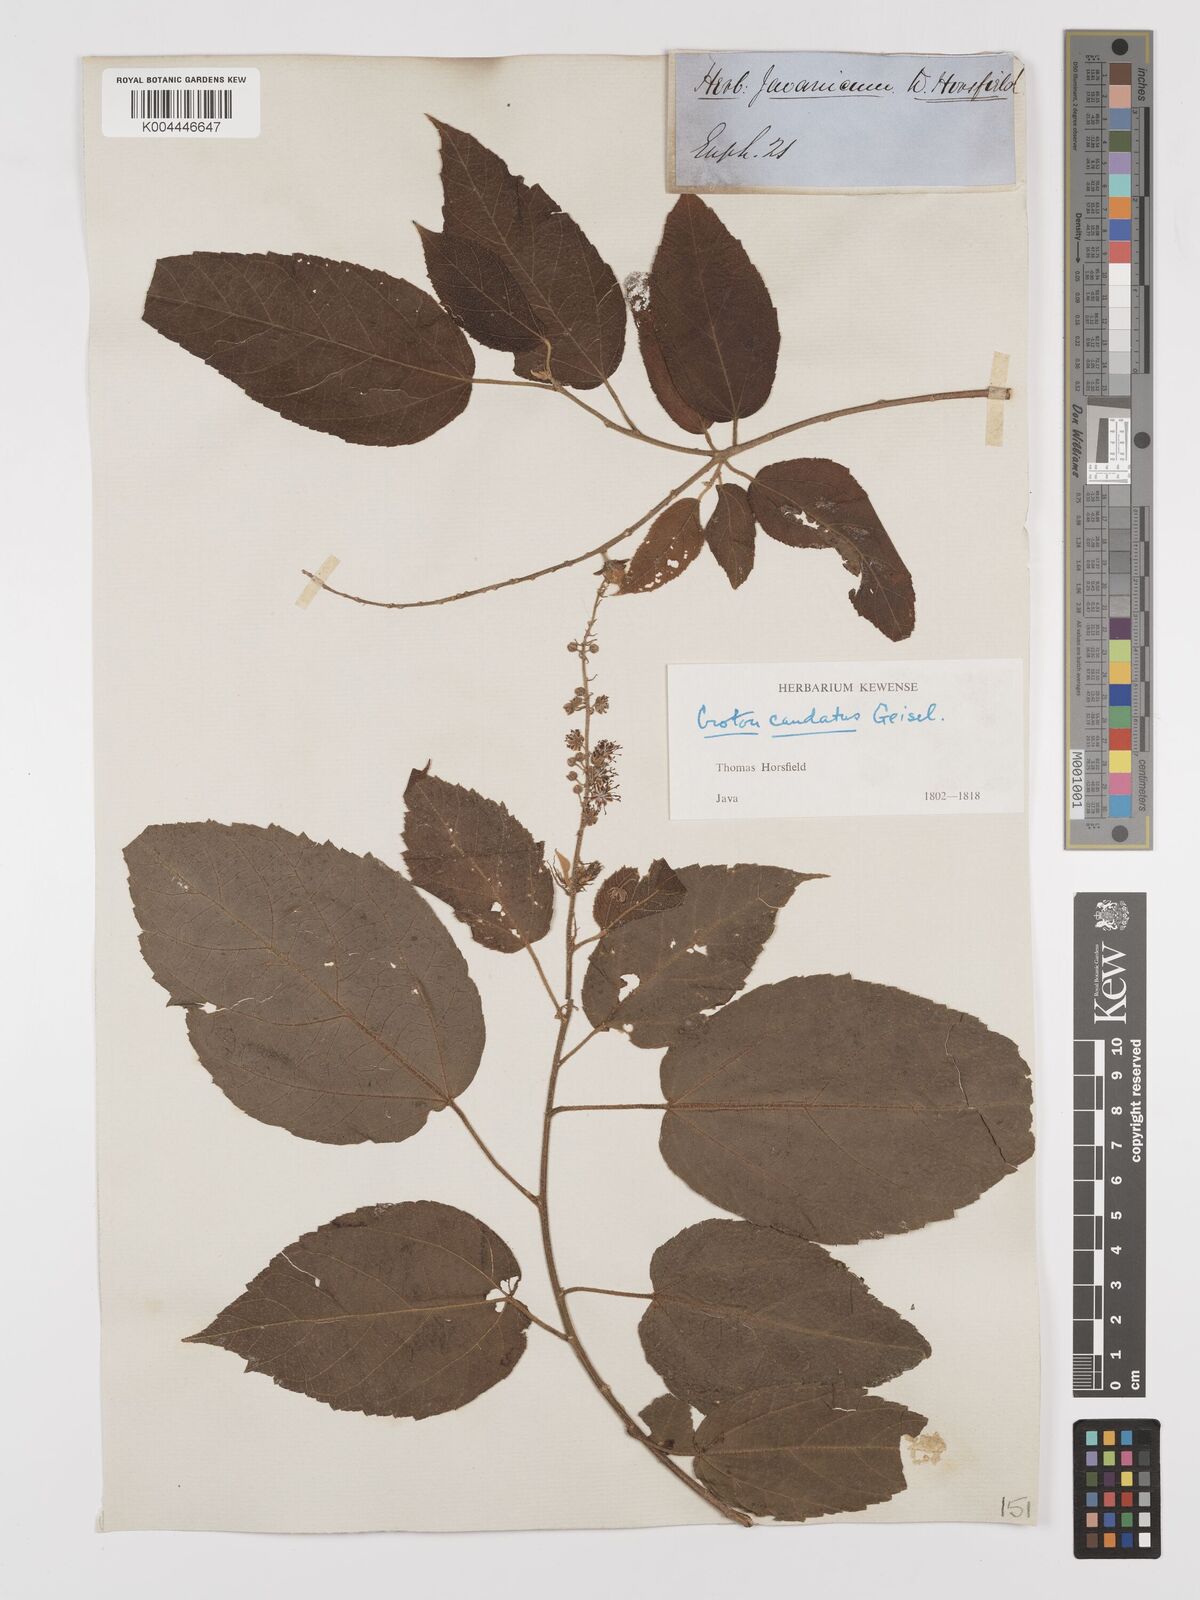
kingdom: Plantae
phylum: Tracheophyta
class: Magnoliopsida
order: Malpighiales
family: Euphorbiaceae
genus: Croton
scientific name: Croton caudatus
